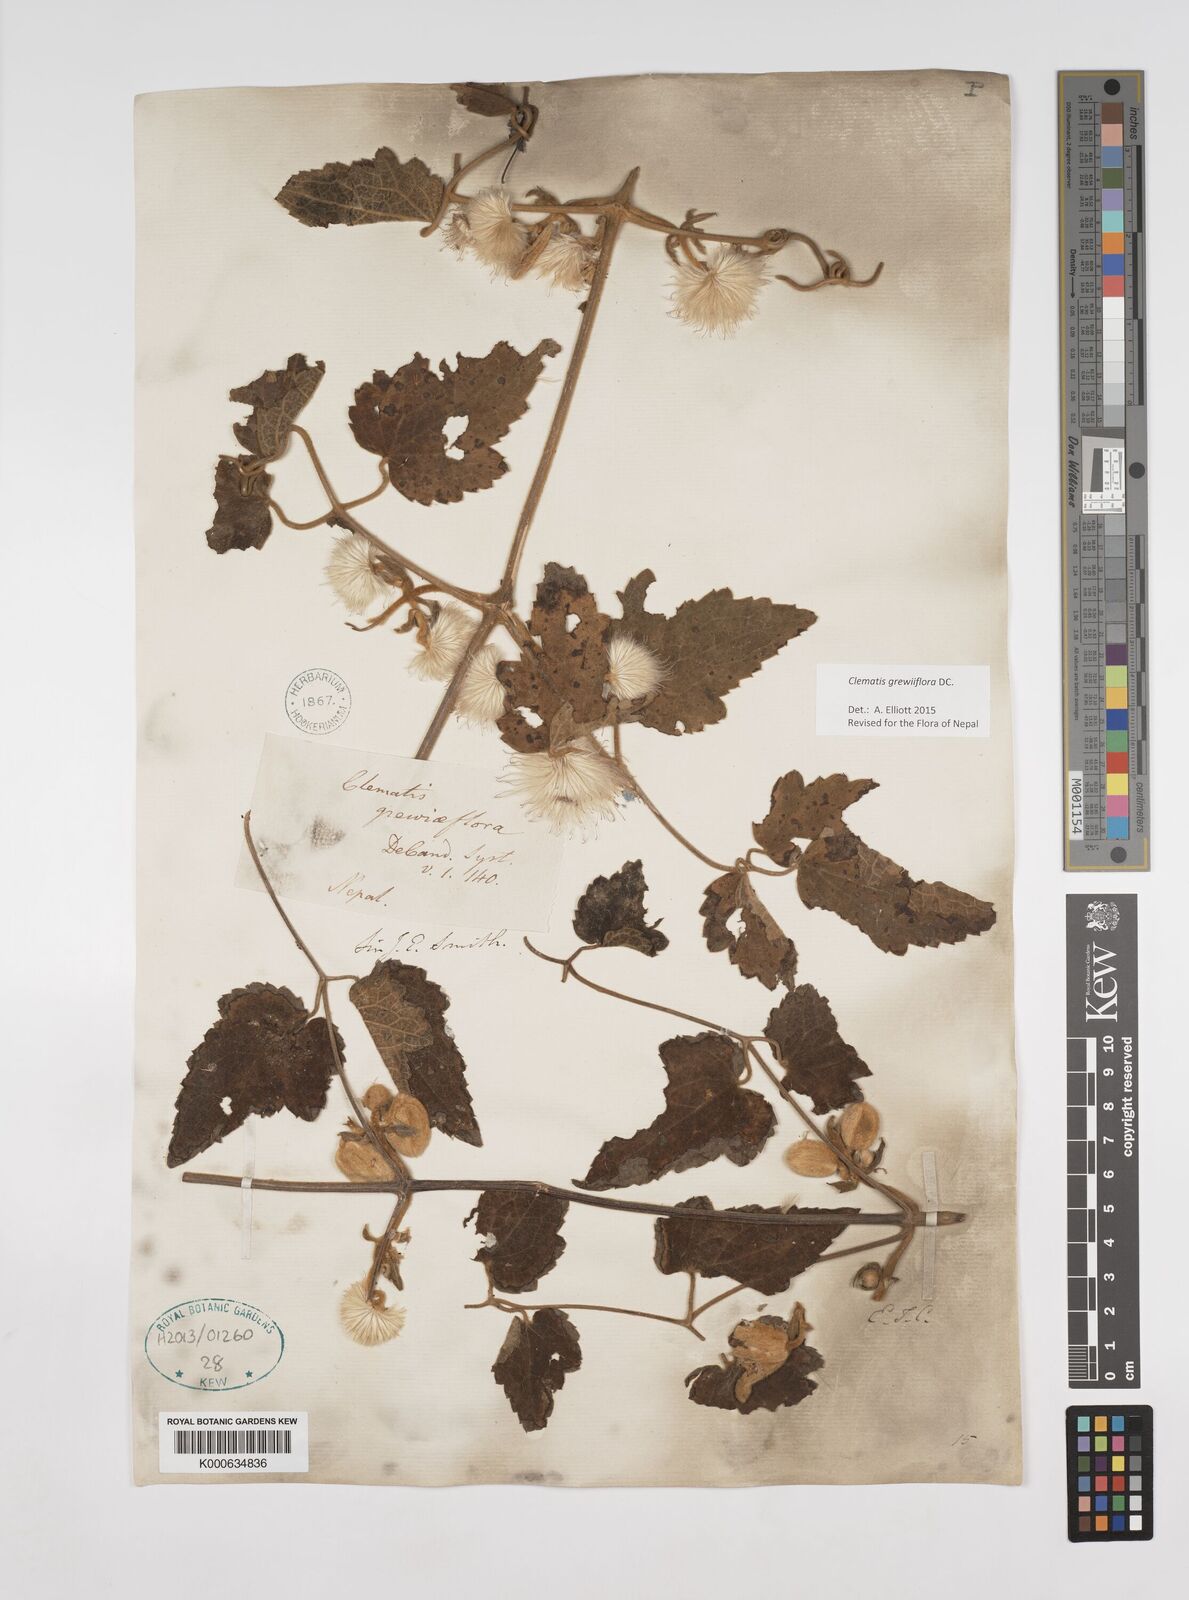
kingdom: Plantae
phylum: Tracheophyta
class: Magnoliopsida
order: Ranunculales
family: Ranunculaceae
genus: Clematis
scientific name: Clematis grewiiflora
